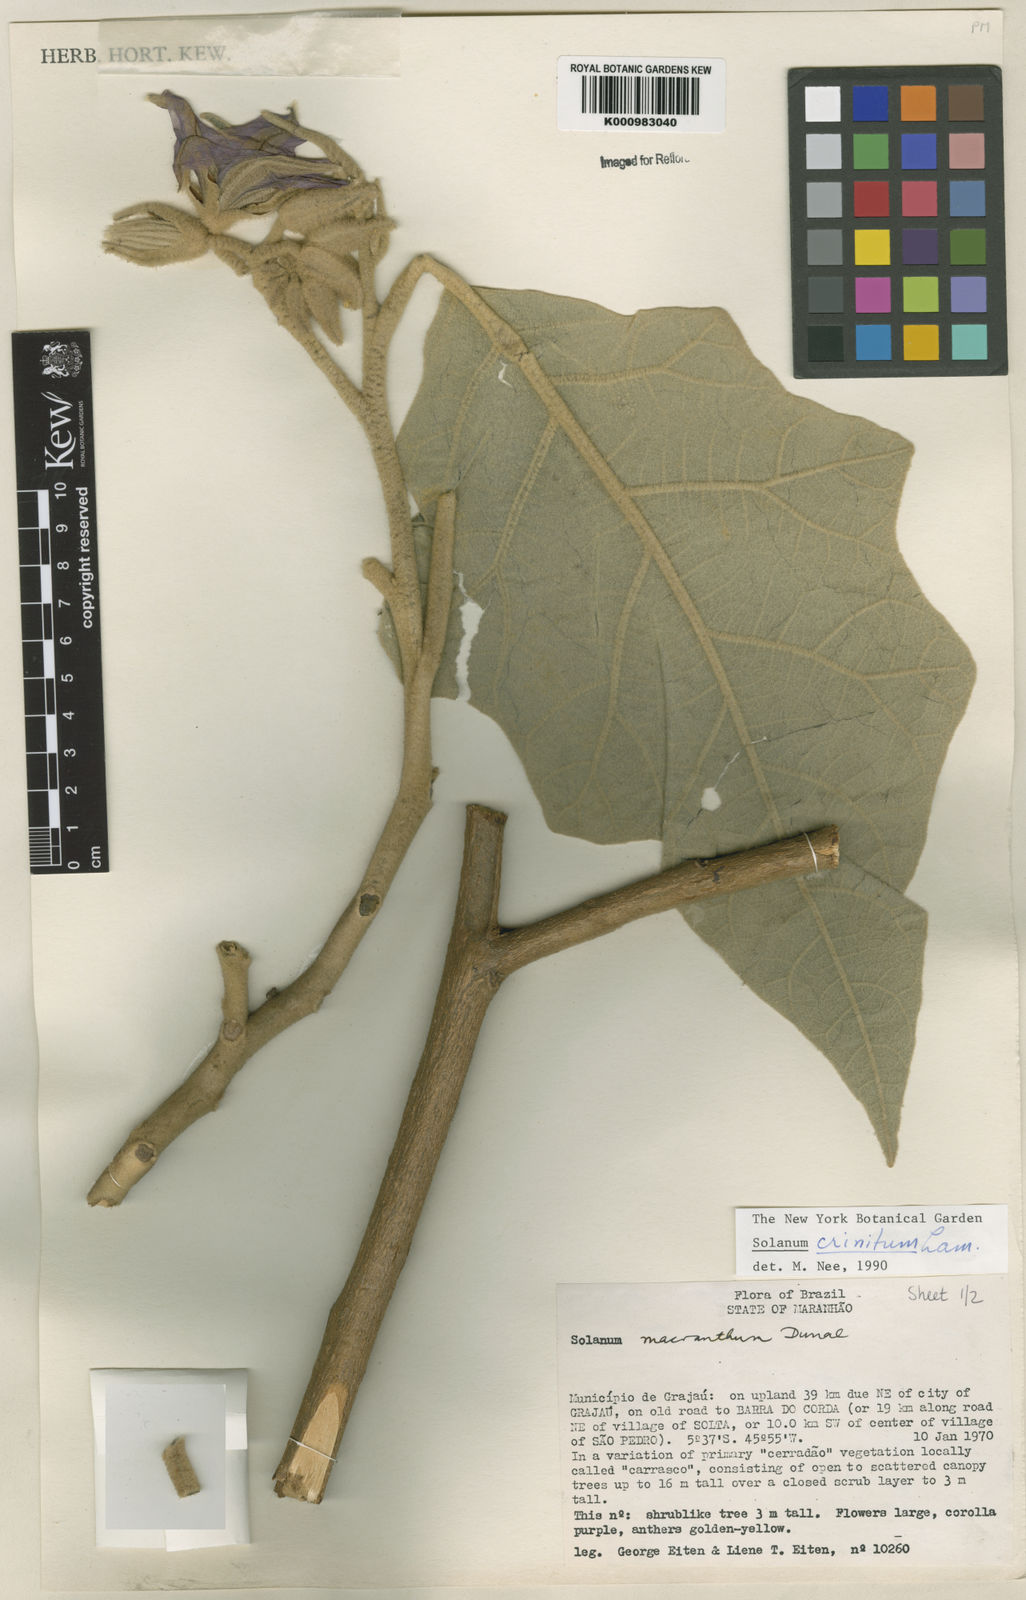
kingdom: Plantae
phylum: Tracheophyta
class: Magnoliopsida
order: Solanales
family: Solanaceae
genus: Solanum
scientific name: Solanum crinitum
